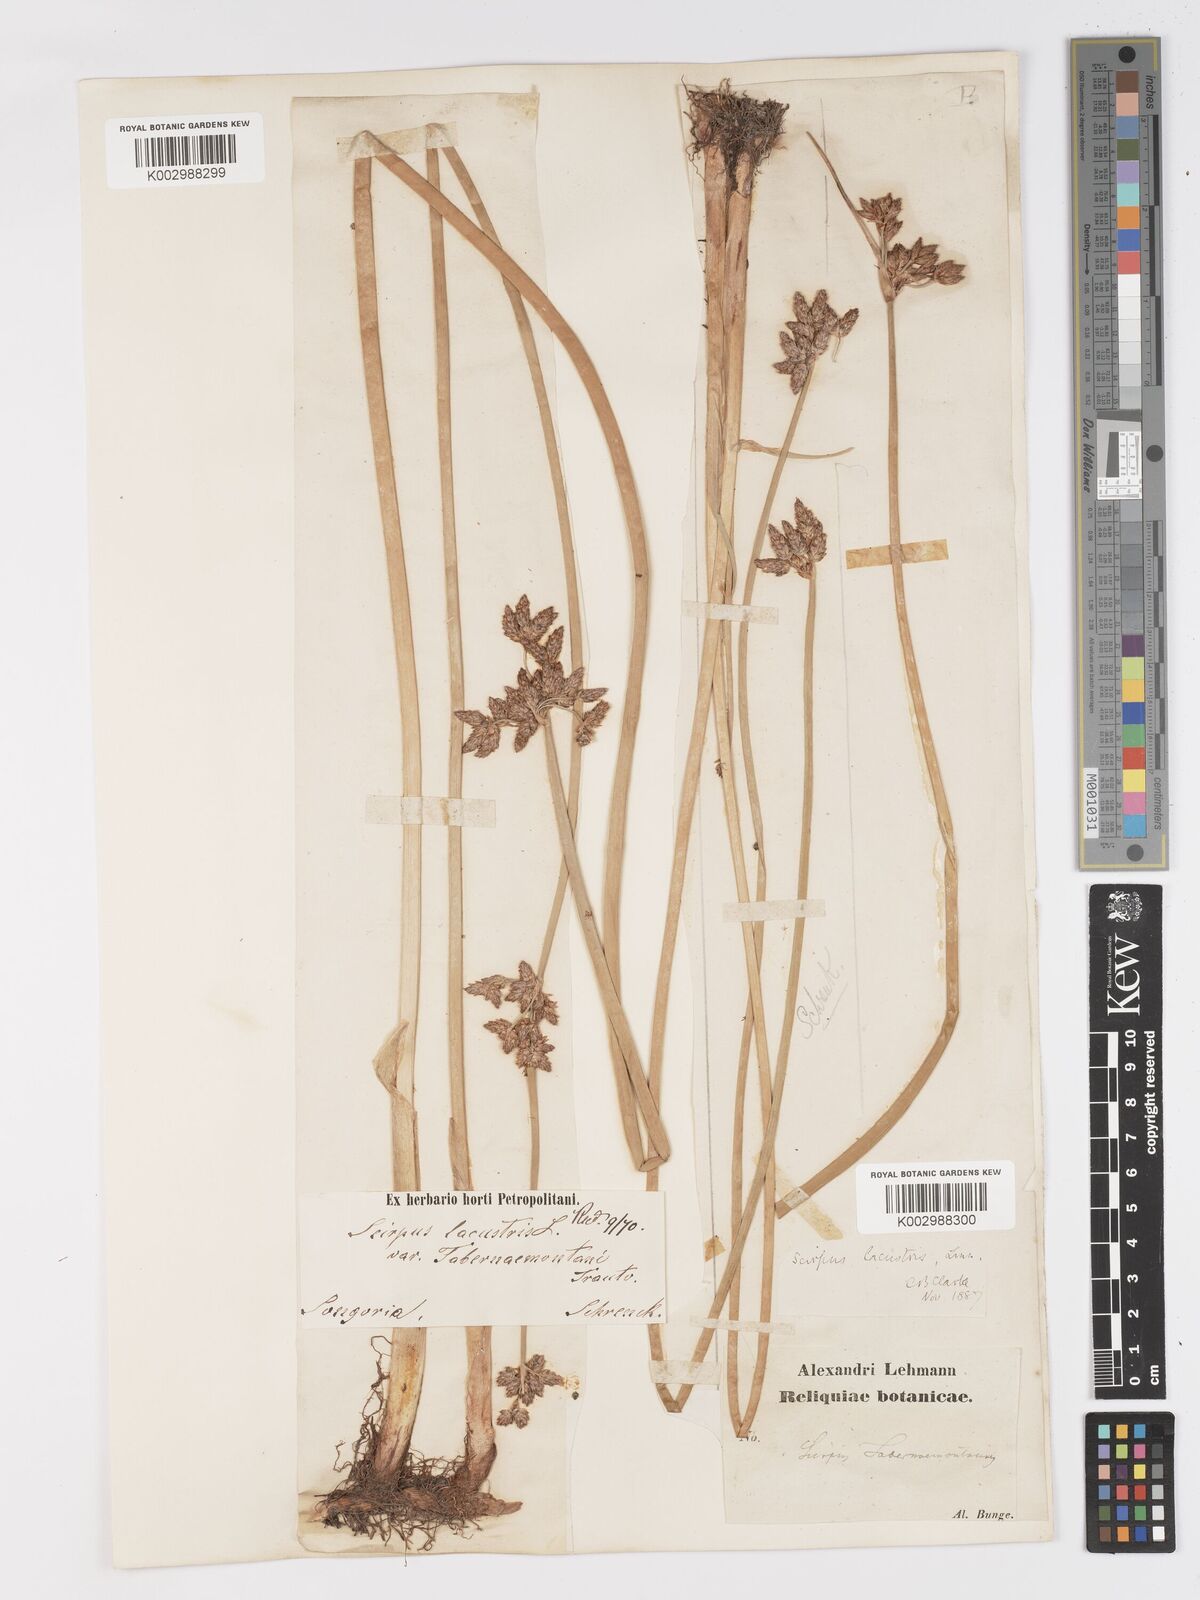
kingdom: Plantae
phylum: Tracheophyta
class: Liliopsida
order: Poales
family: Cyperaceae
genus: Schoenoplectus
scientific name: Schoenoplectus lacustris
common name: Common club-rush
